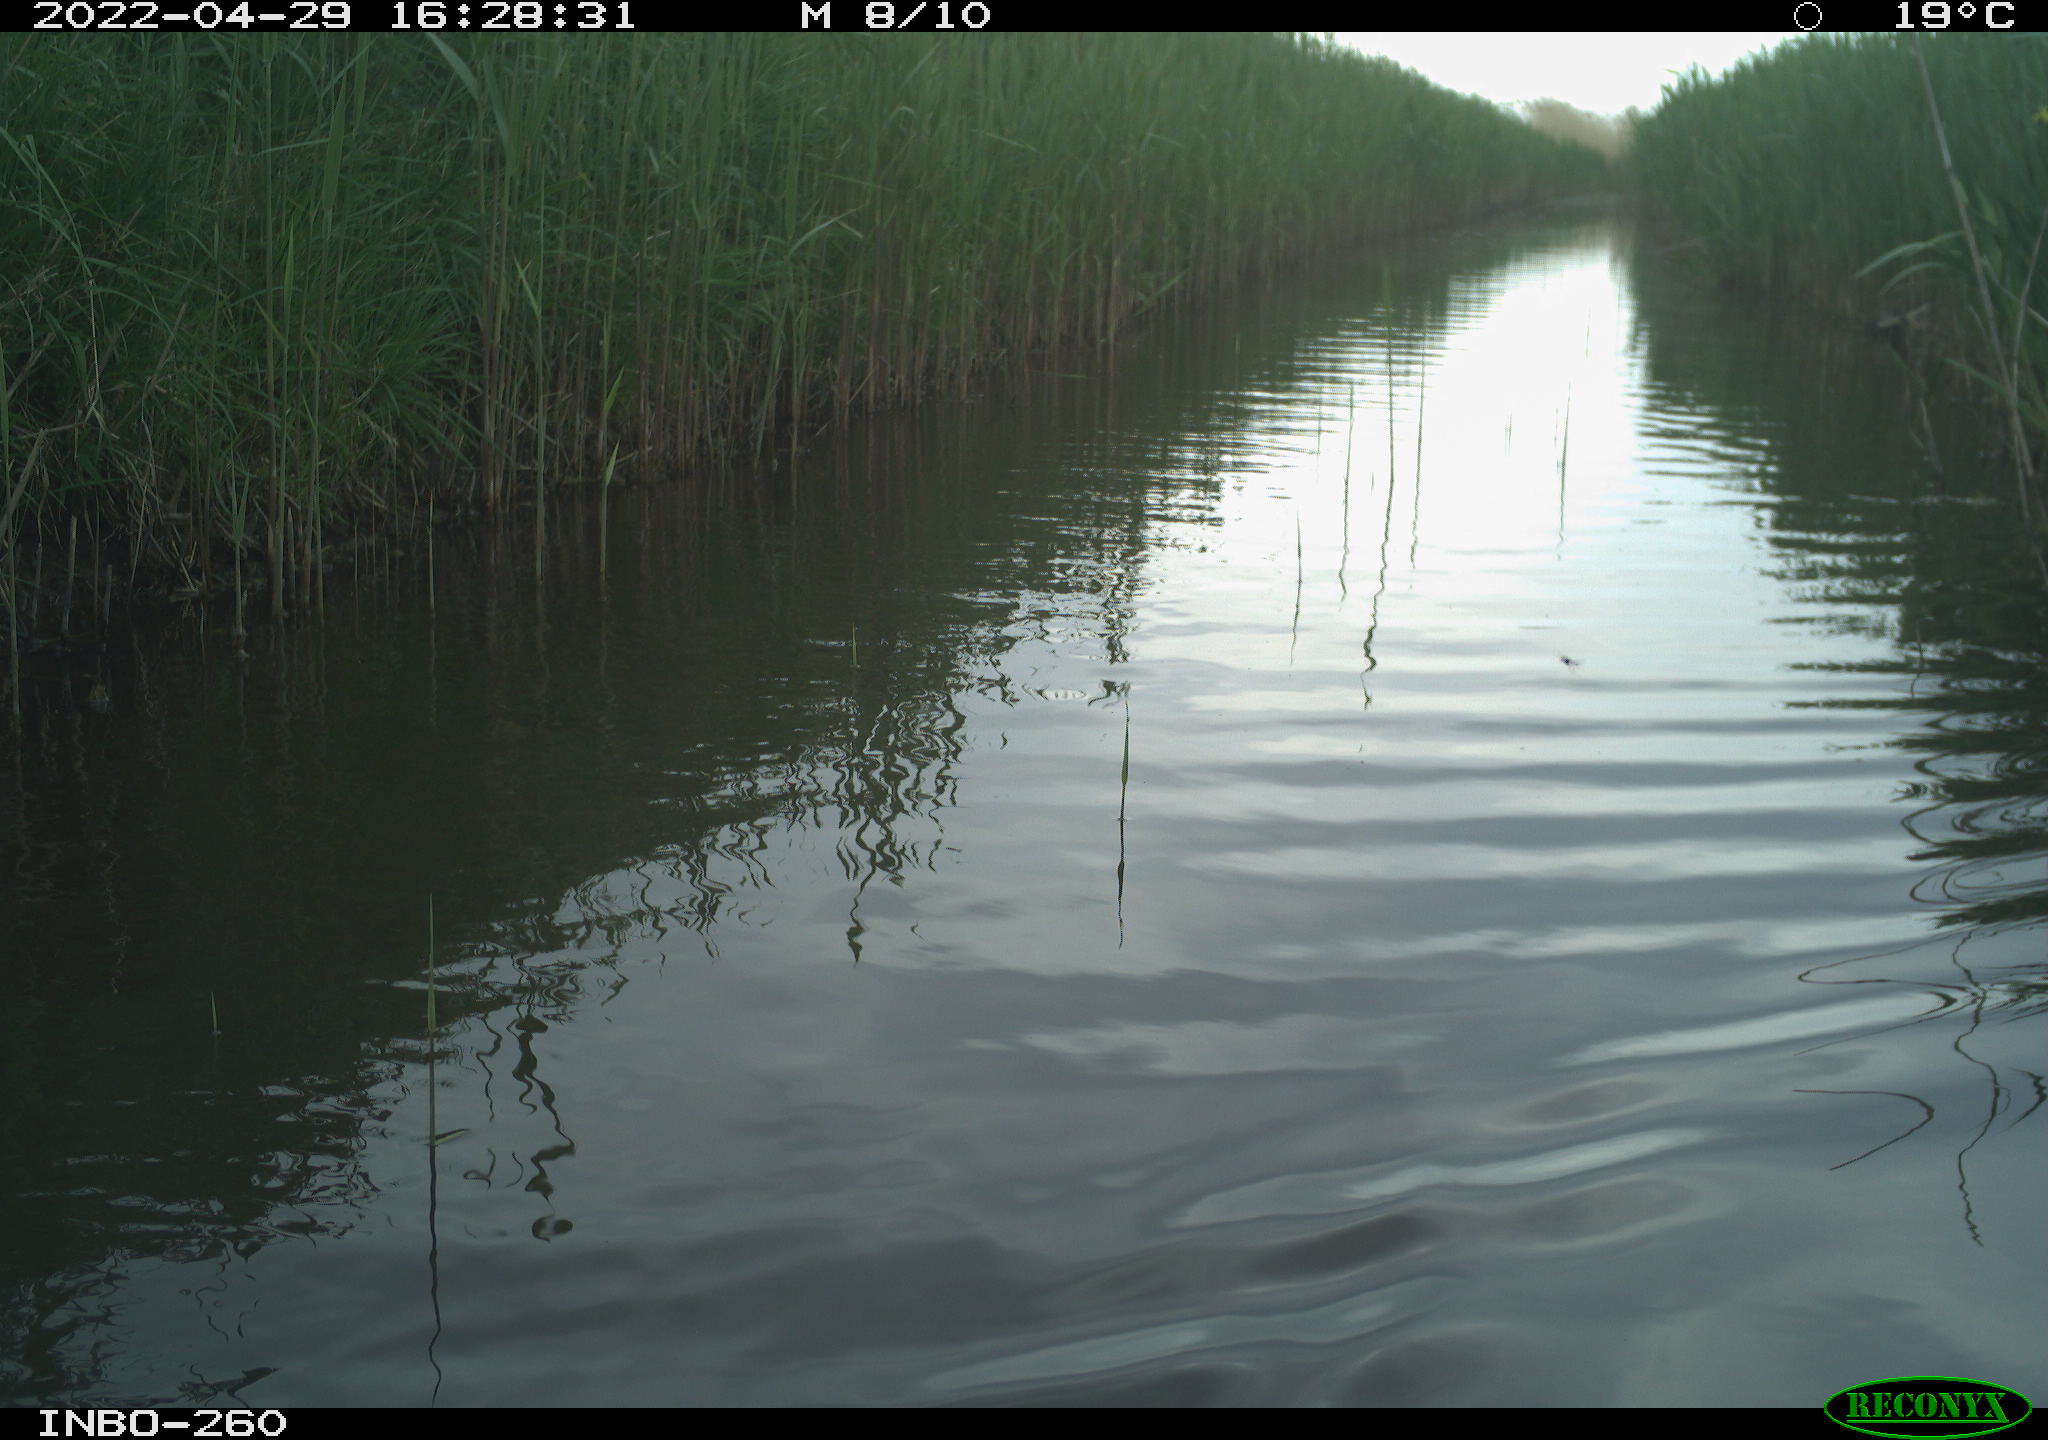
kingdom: Animalia
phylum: Chordata
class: Aves
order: Gruiformes
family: Rallidae
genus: Fulica
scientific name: Fulica atra
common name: Eurasian coot
